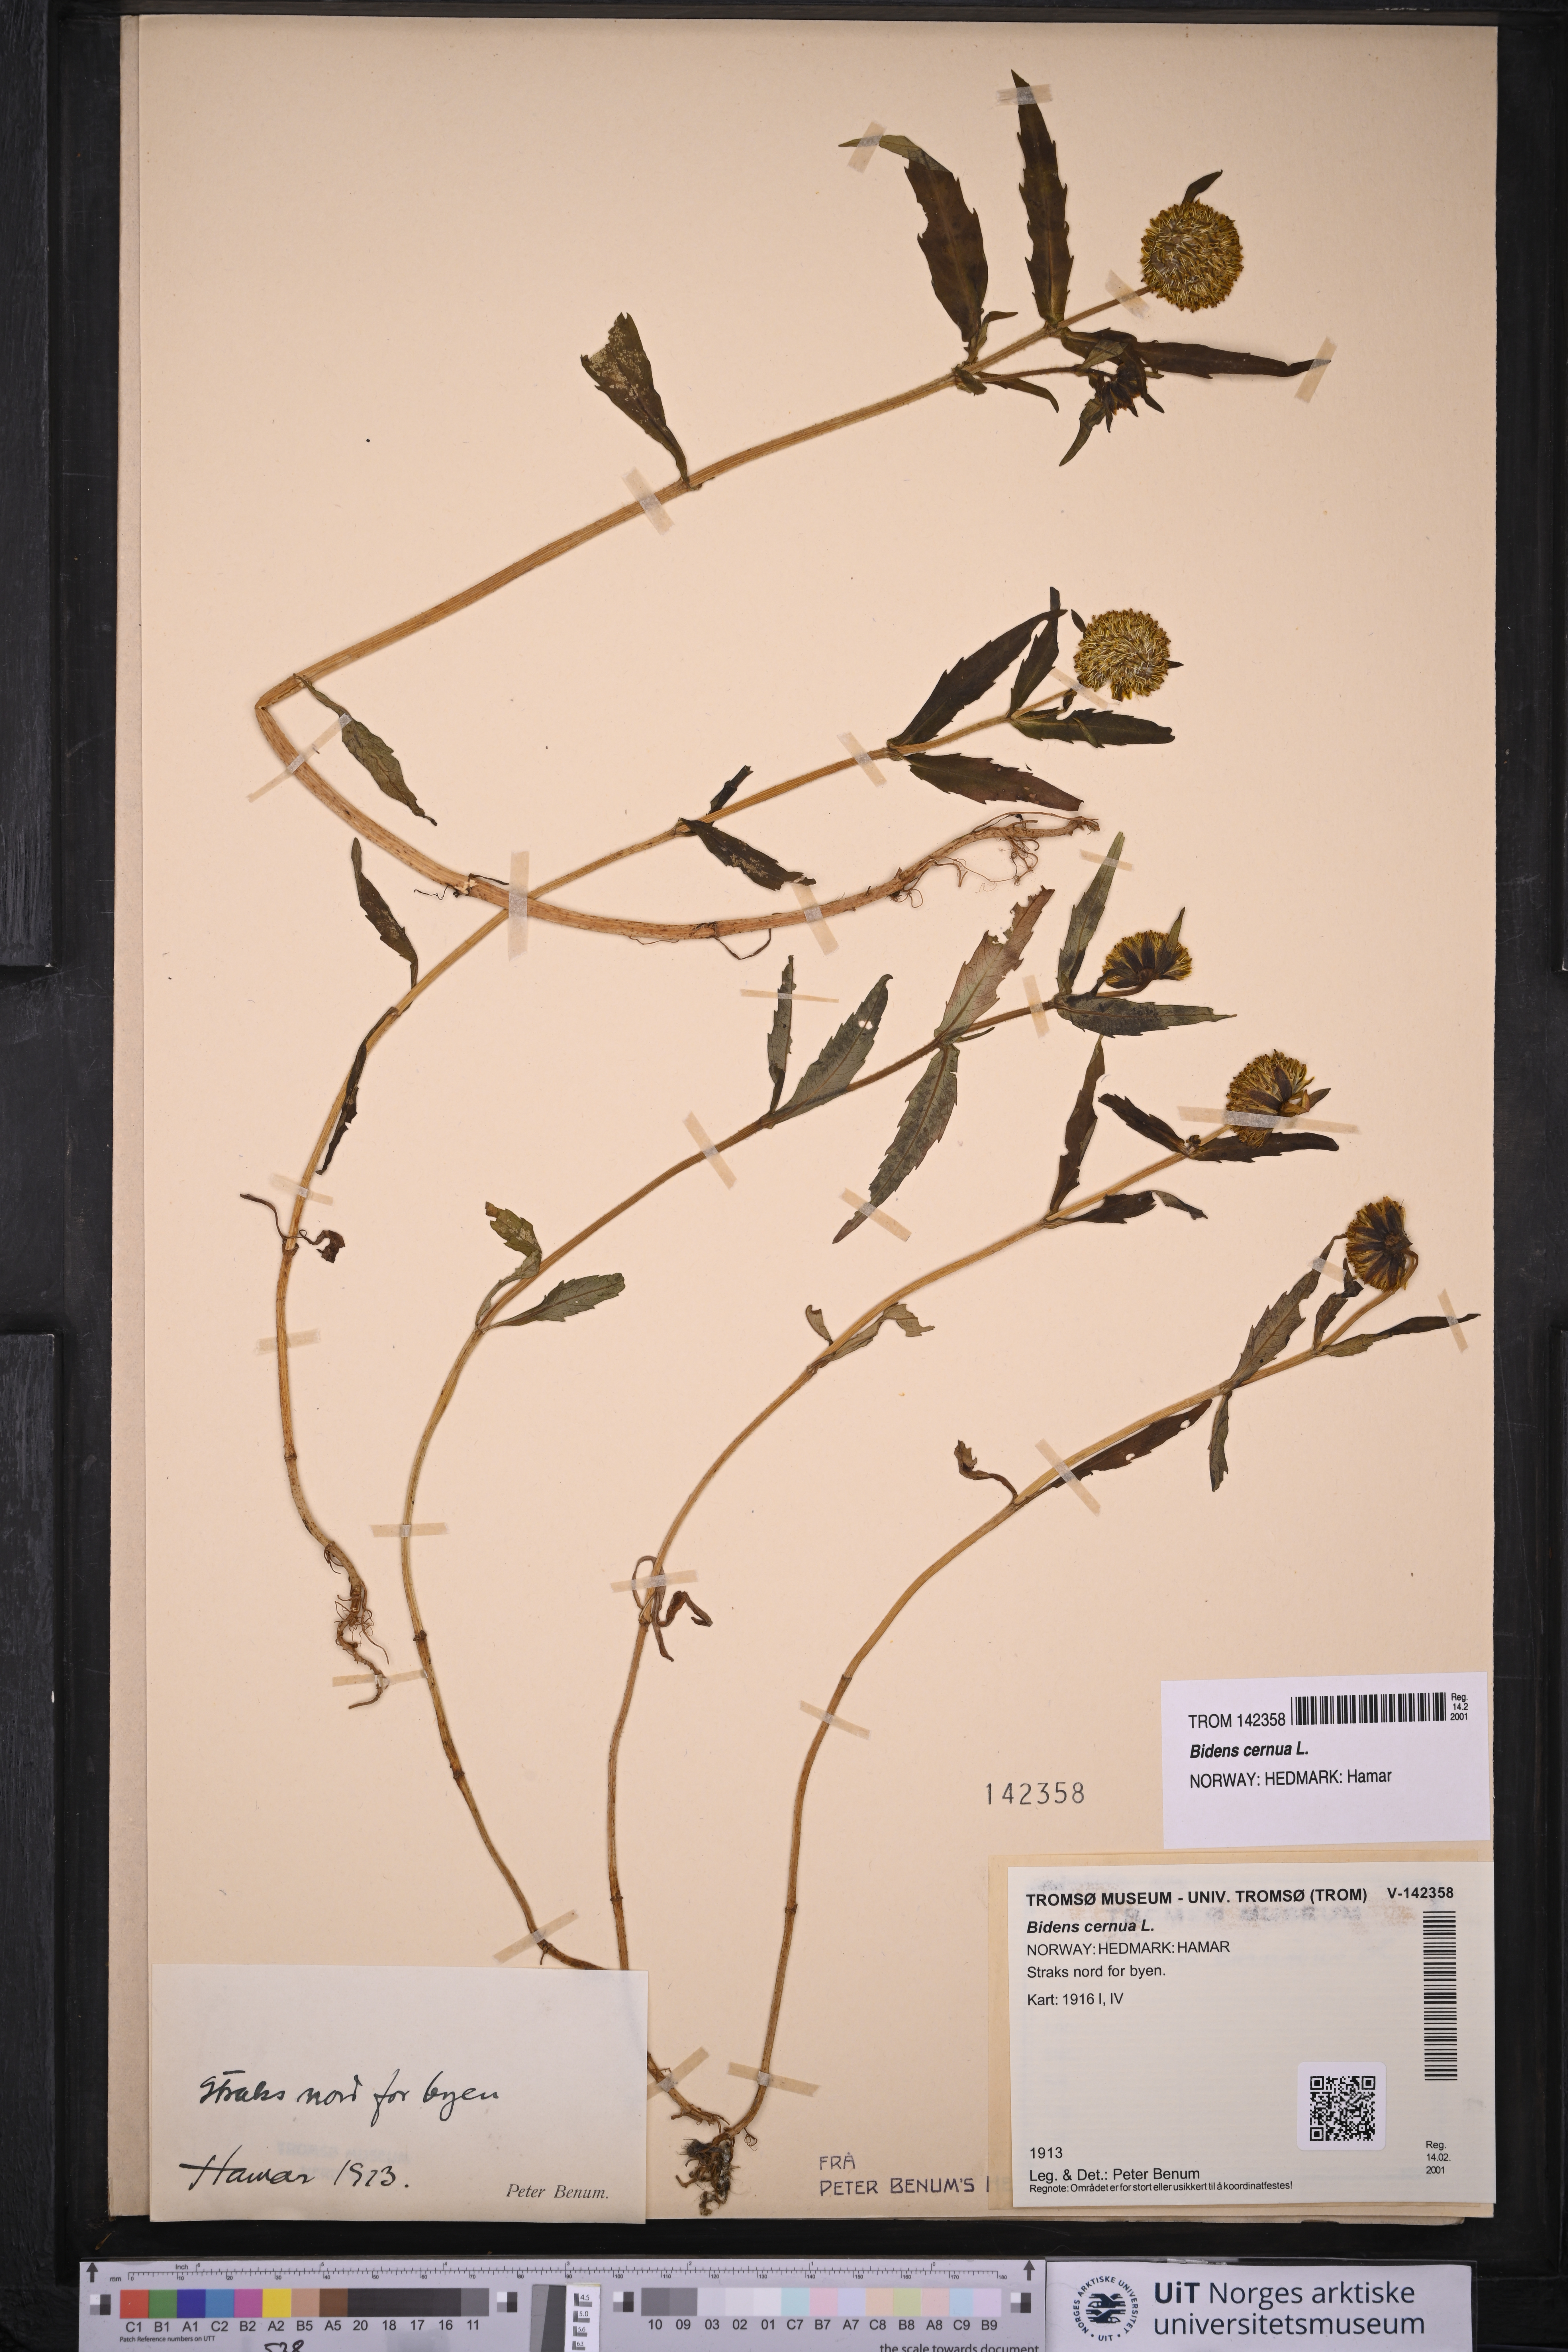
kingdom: Plantae
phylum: Tracheophyta
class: Magnoliopsida
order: Asterales
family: Asteraceae
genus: Bidens
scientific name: Bidens cernua
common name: Nodding bur-marigold
